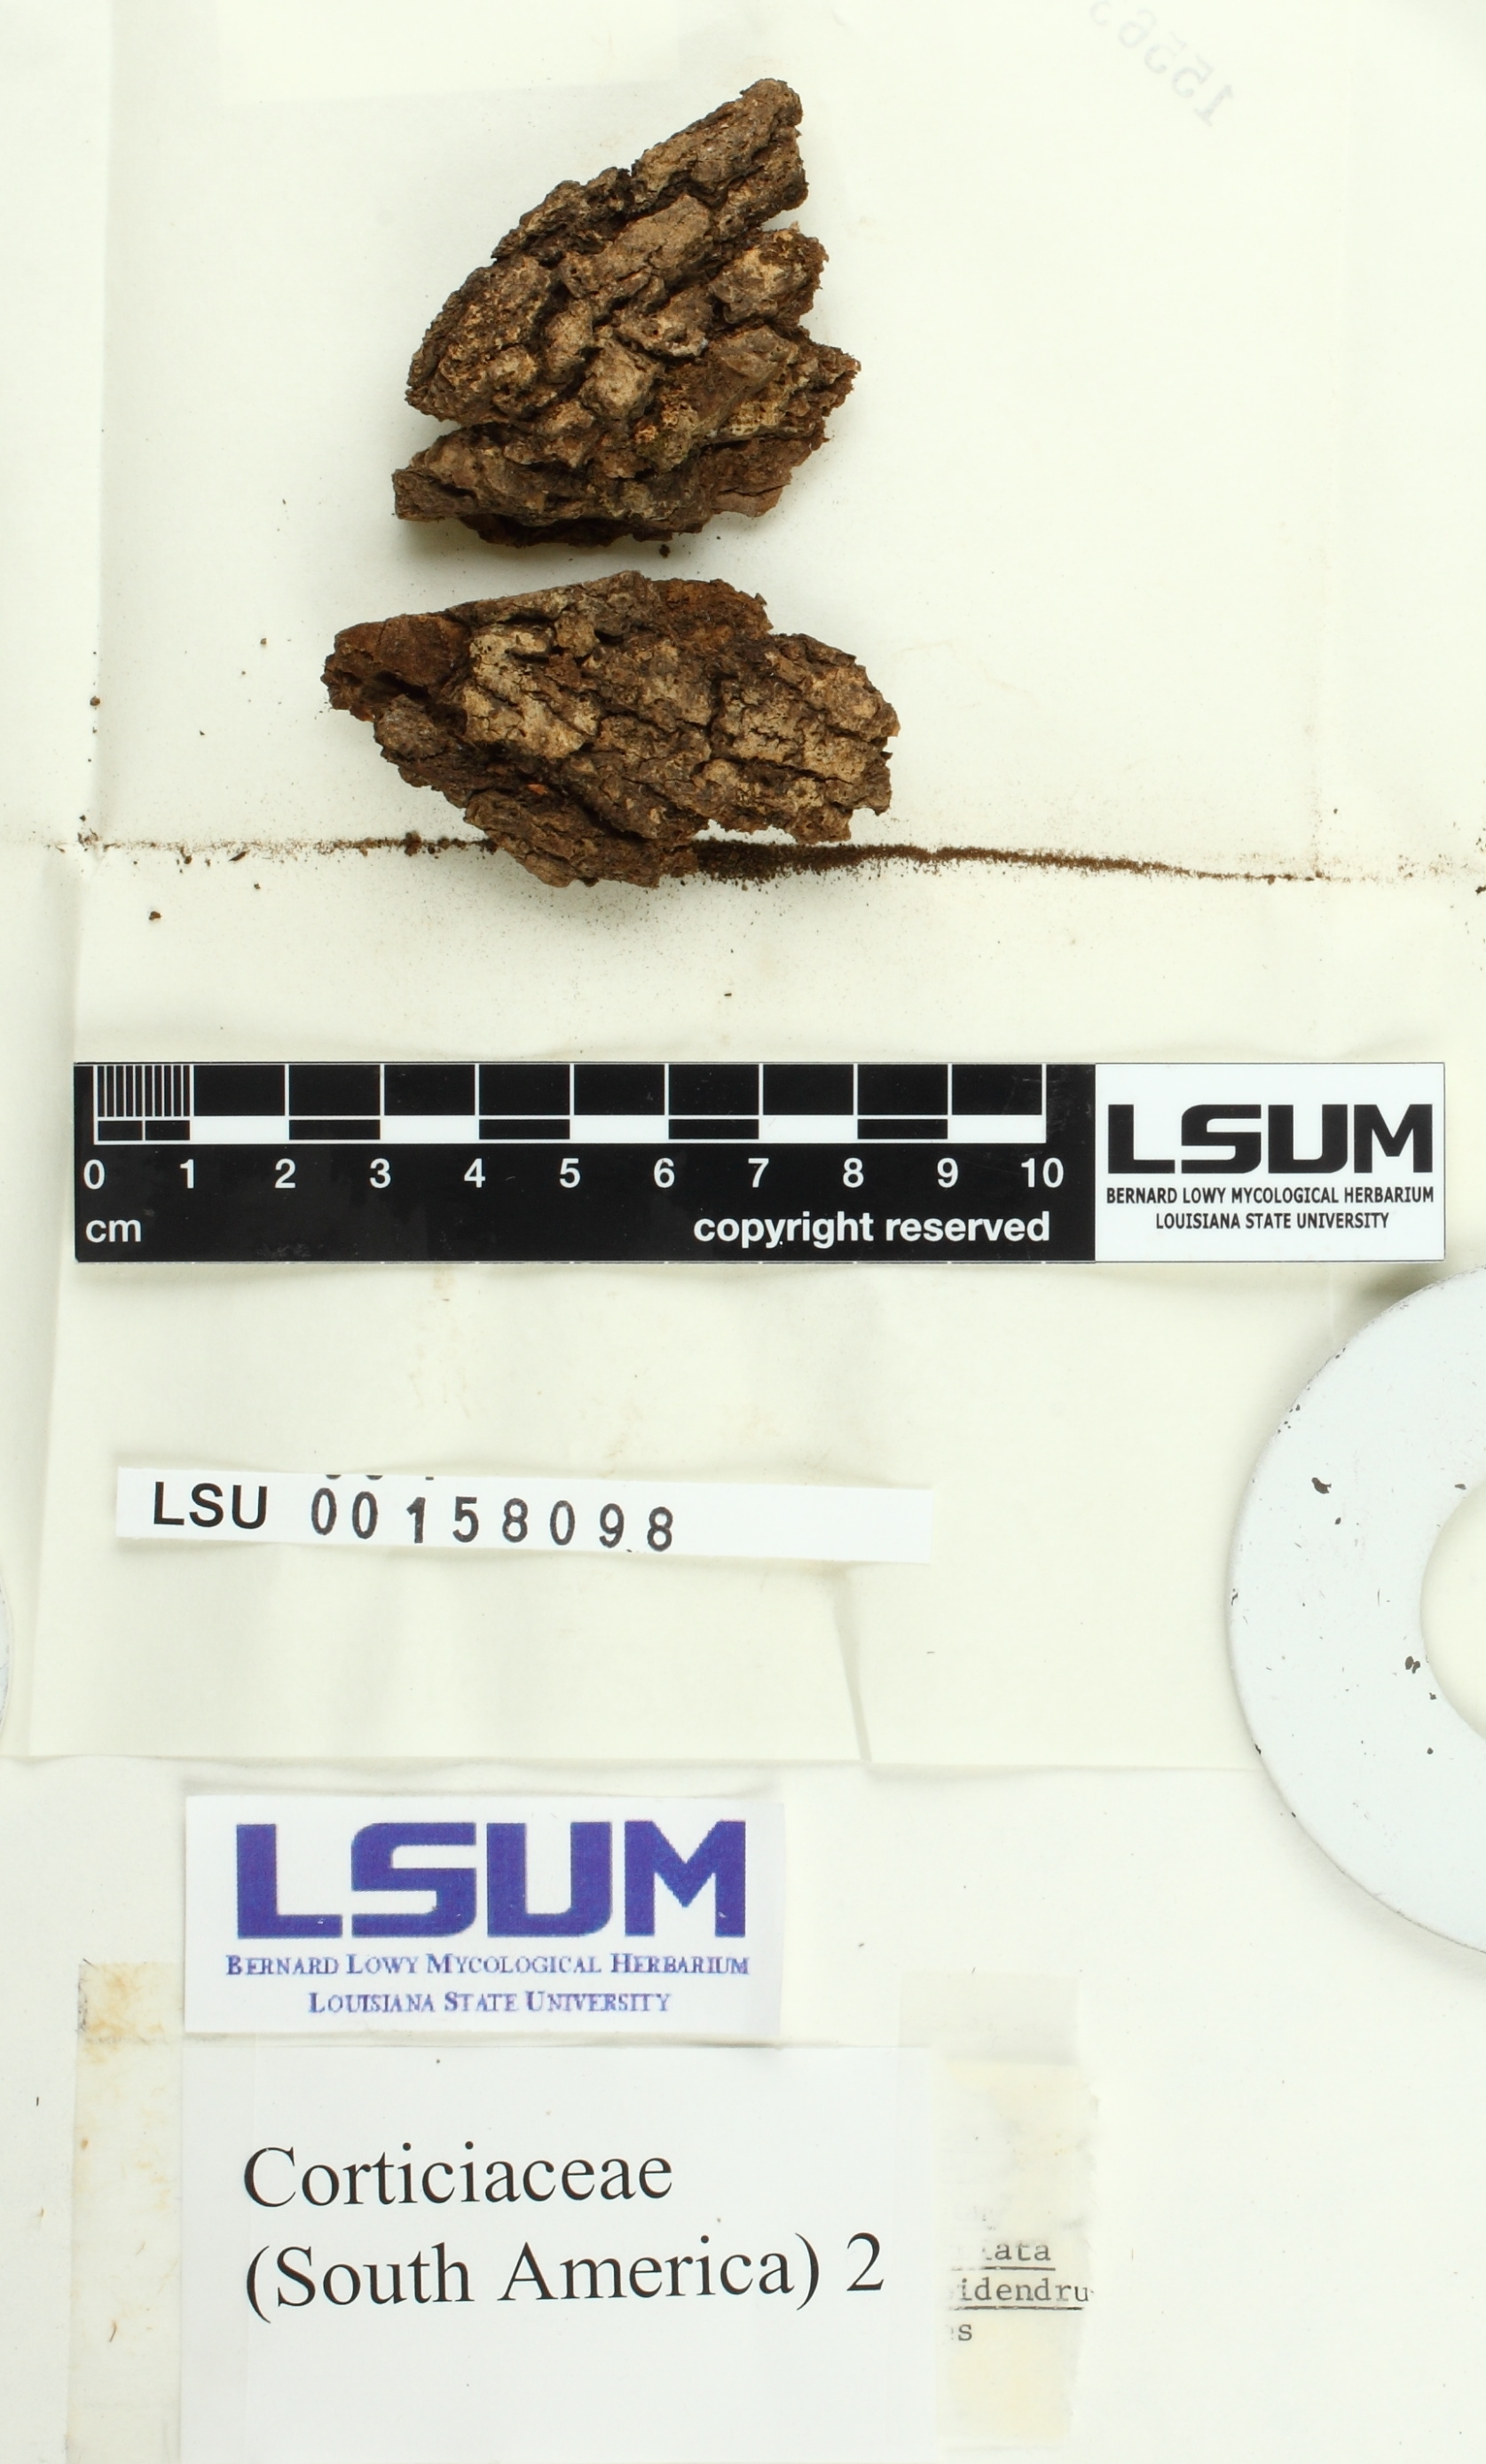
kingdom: Fungi
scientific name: Fungi
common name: Fungi
